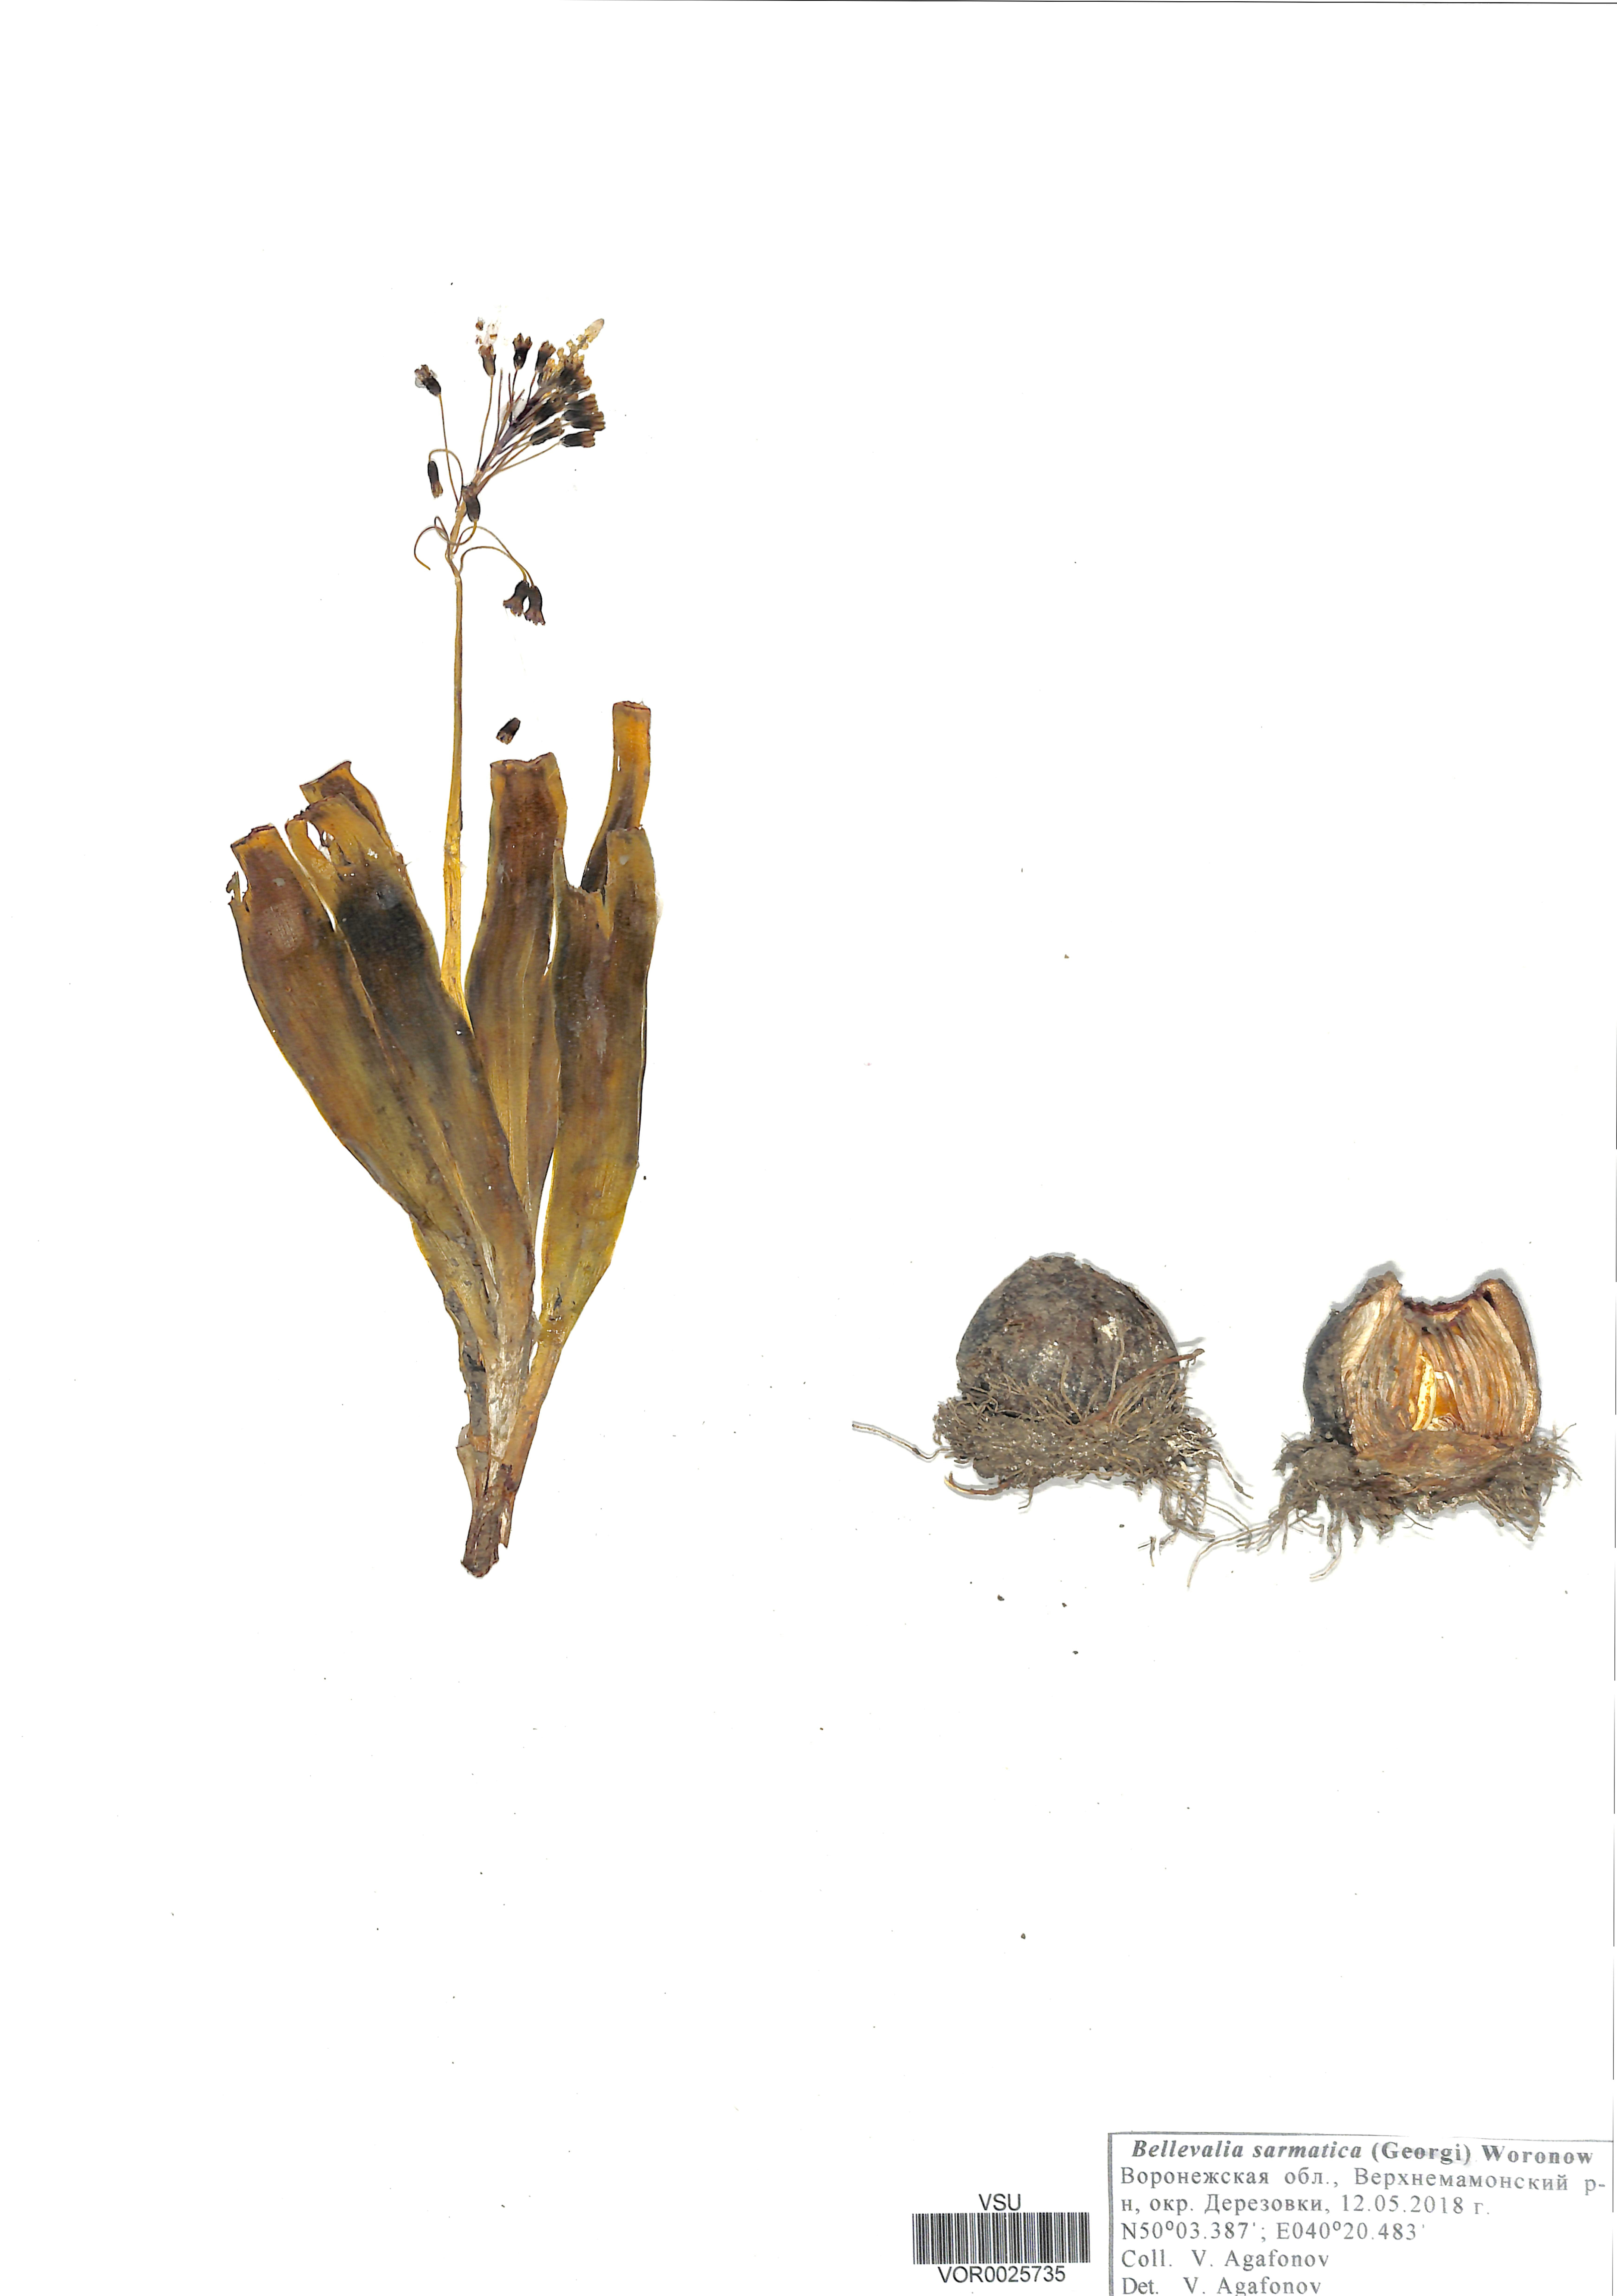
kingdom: Plantae
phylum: Tracheophyta
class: Liliopsida
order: Asparagales
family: Asparagaceae
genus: Bellevalia
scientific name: Bellevalia speciosa
